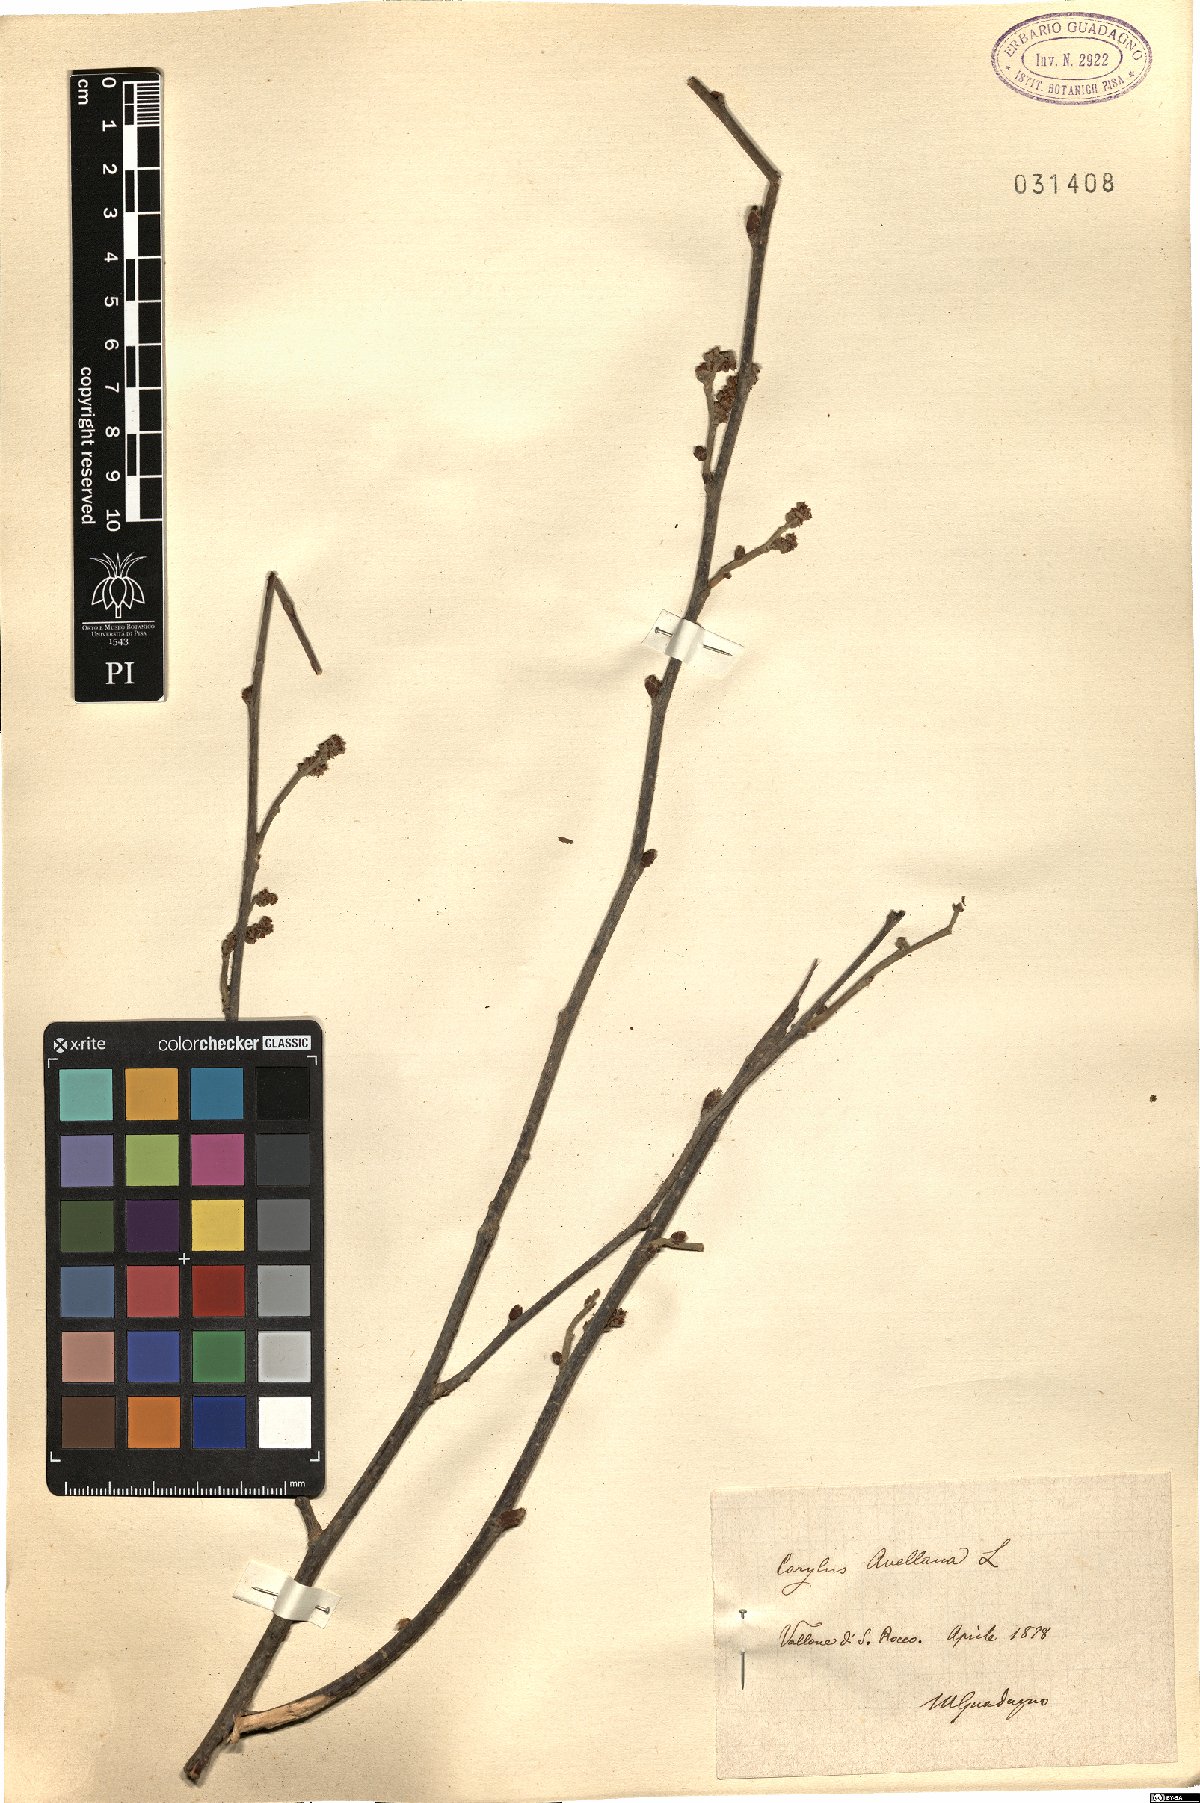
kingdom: Plantae
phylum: Tracheophyta
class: Magnoliopsida
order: Fagales
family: Betulaceae
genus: Corylus
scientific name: Corylus avellana
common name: European hazel
